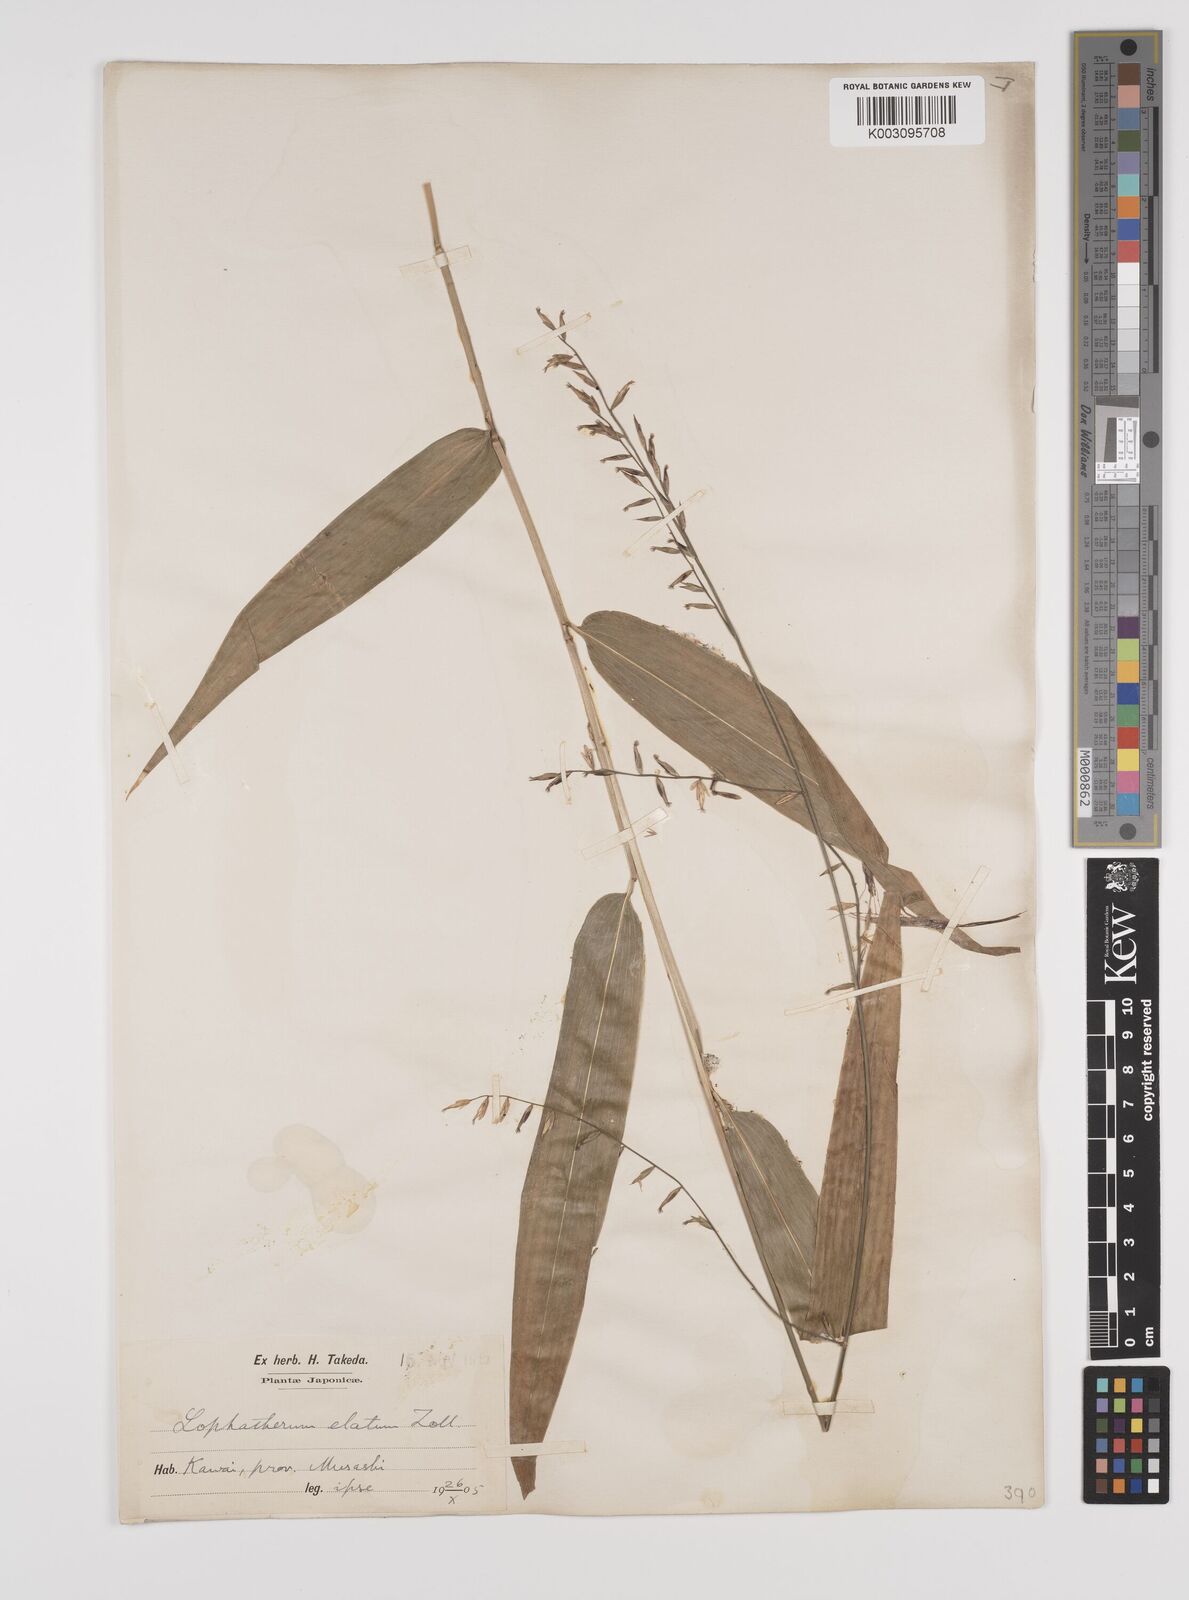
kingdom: Plantae
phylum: Tracheophyta
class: Liliopsida
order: Poales
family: Poaceae
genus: Lophatherum
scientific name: Lophatherum gracile
